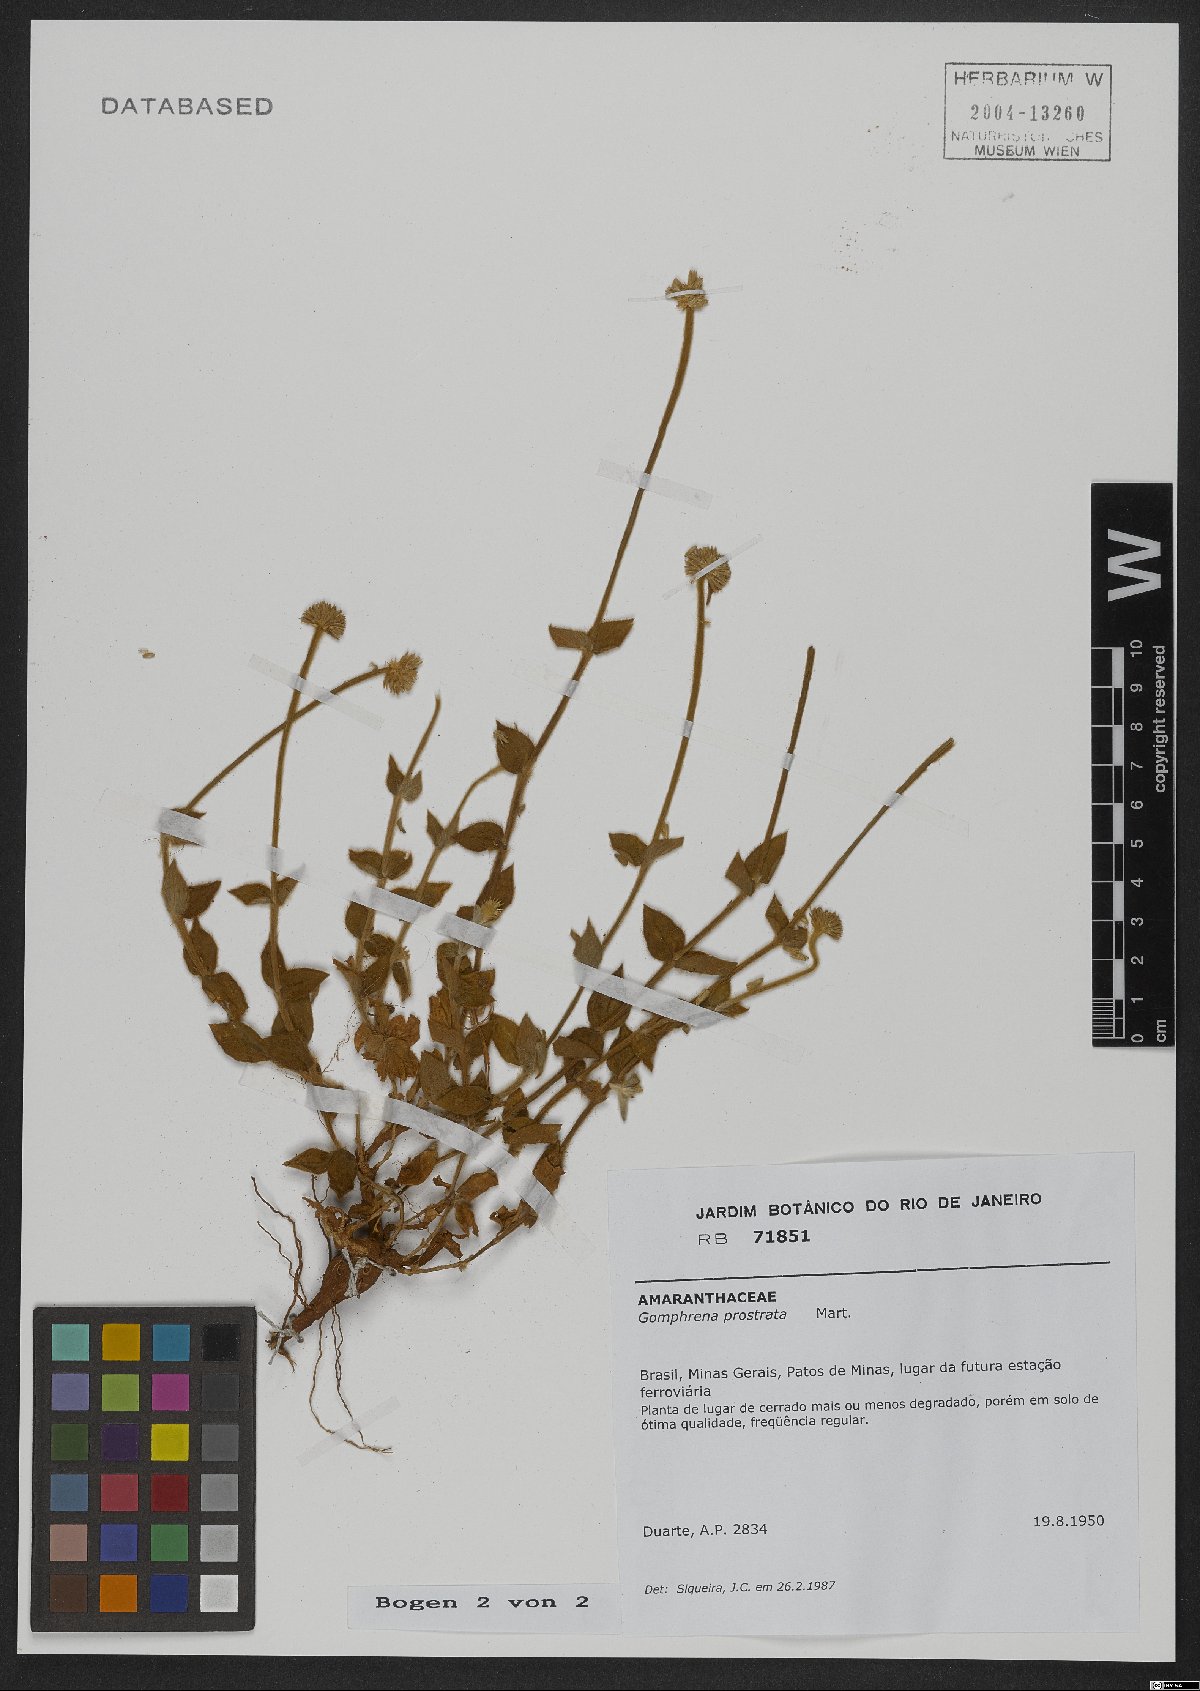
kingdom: Plantae
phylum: Tracheophyta
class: Magnoliopsida
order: Caryophyllales
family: Amaranthaceae
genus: Gomphrena
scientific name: Gomphrena prostrata
